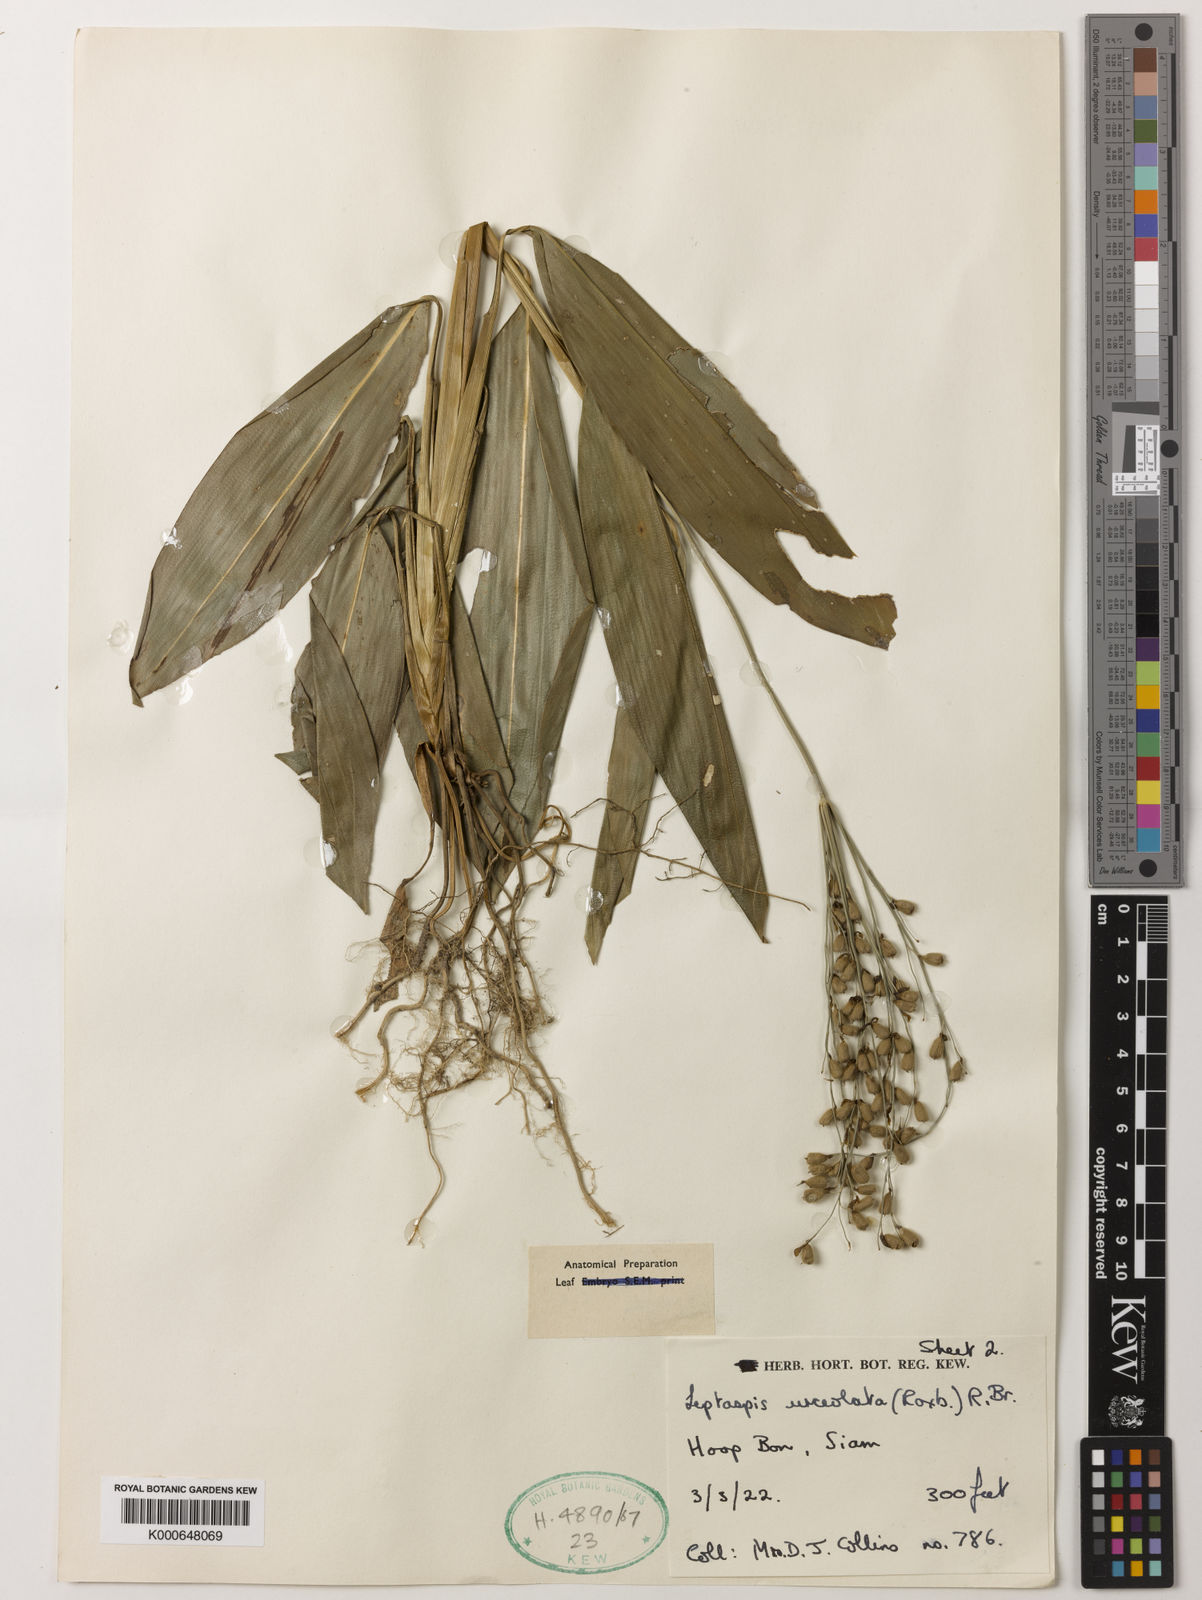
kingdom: Plantae
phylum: Tracheophyta
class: Liliopsida
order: Poales
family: Poaceae
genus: Scrotochloa
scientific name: Scrotochloa urceolata
